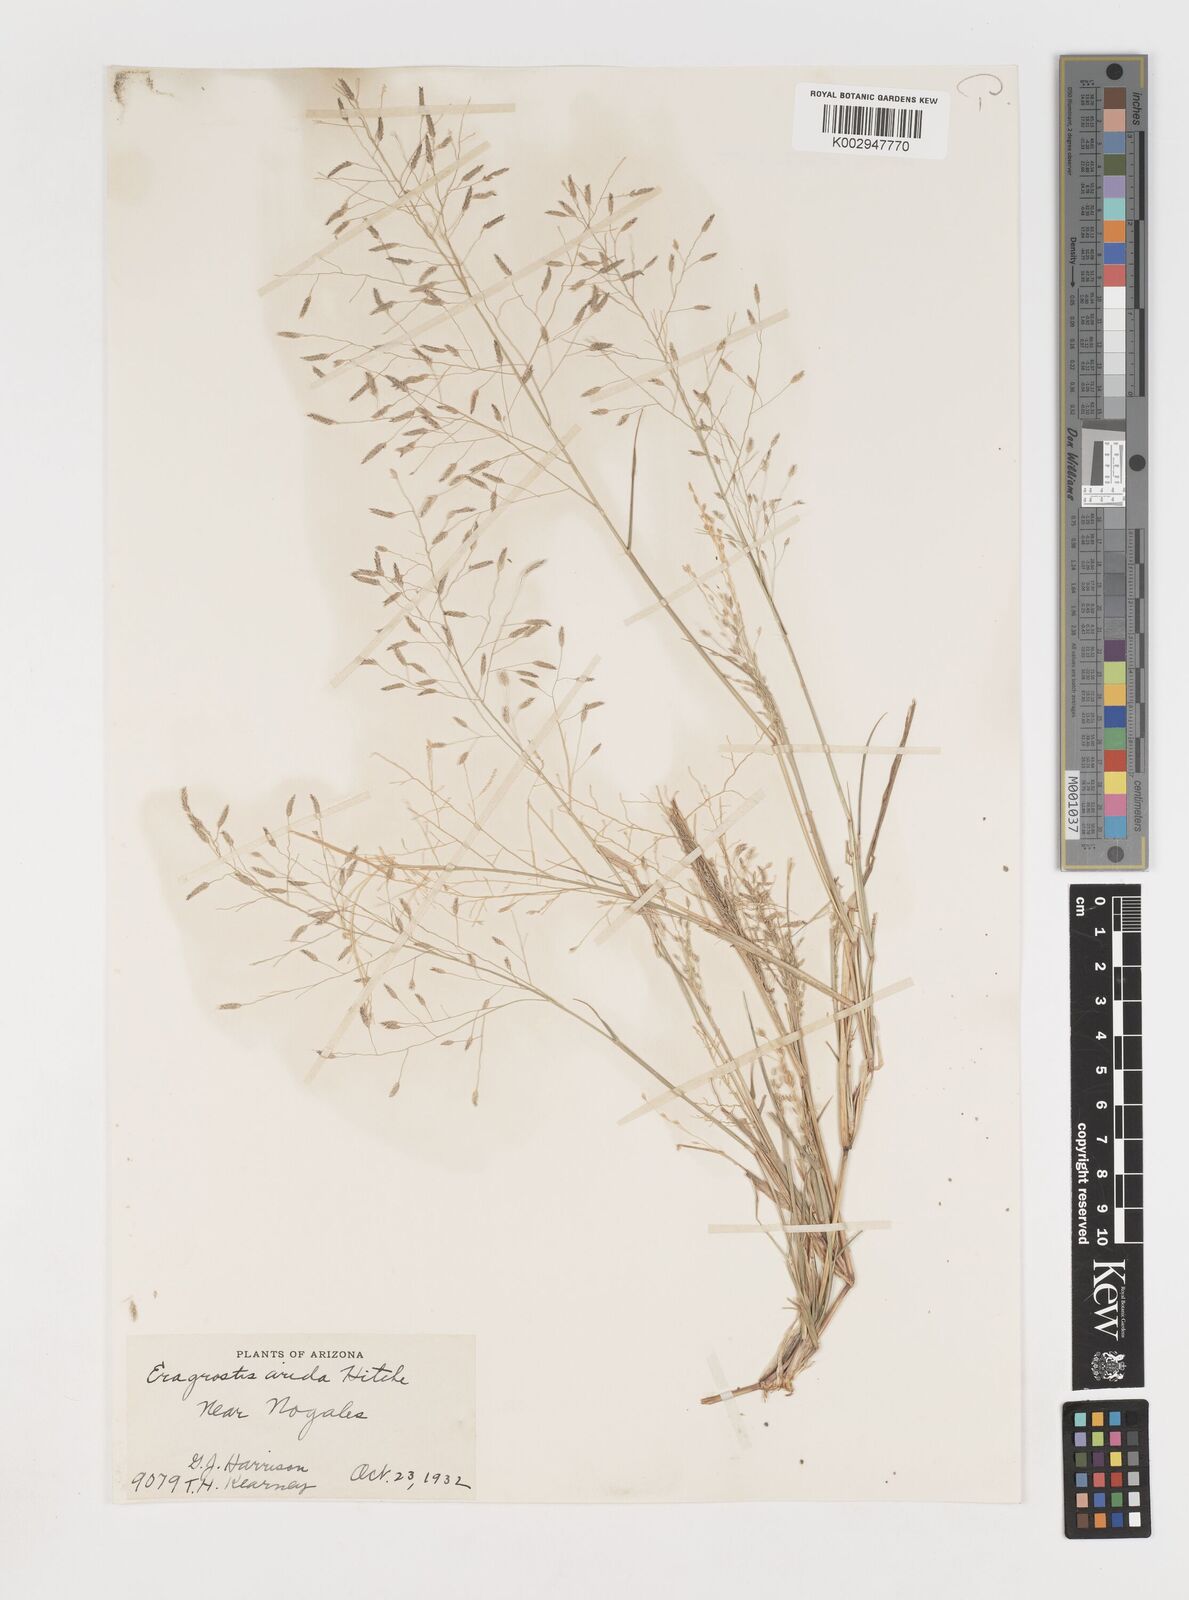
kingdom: Plantae
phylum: Tracheophyta
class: Liliopsida
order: Poales
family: Poaceae
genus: Eragrostis
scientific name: Eragrostis pectinacea
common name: Tufted lovegrass
